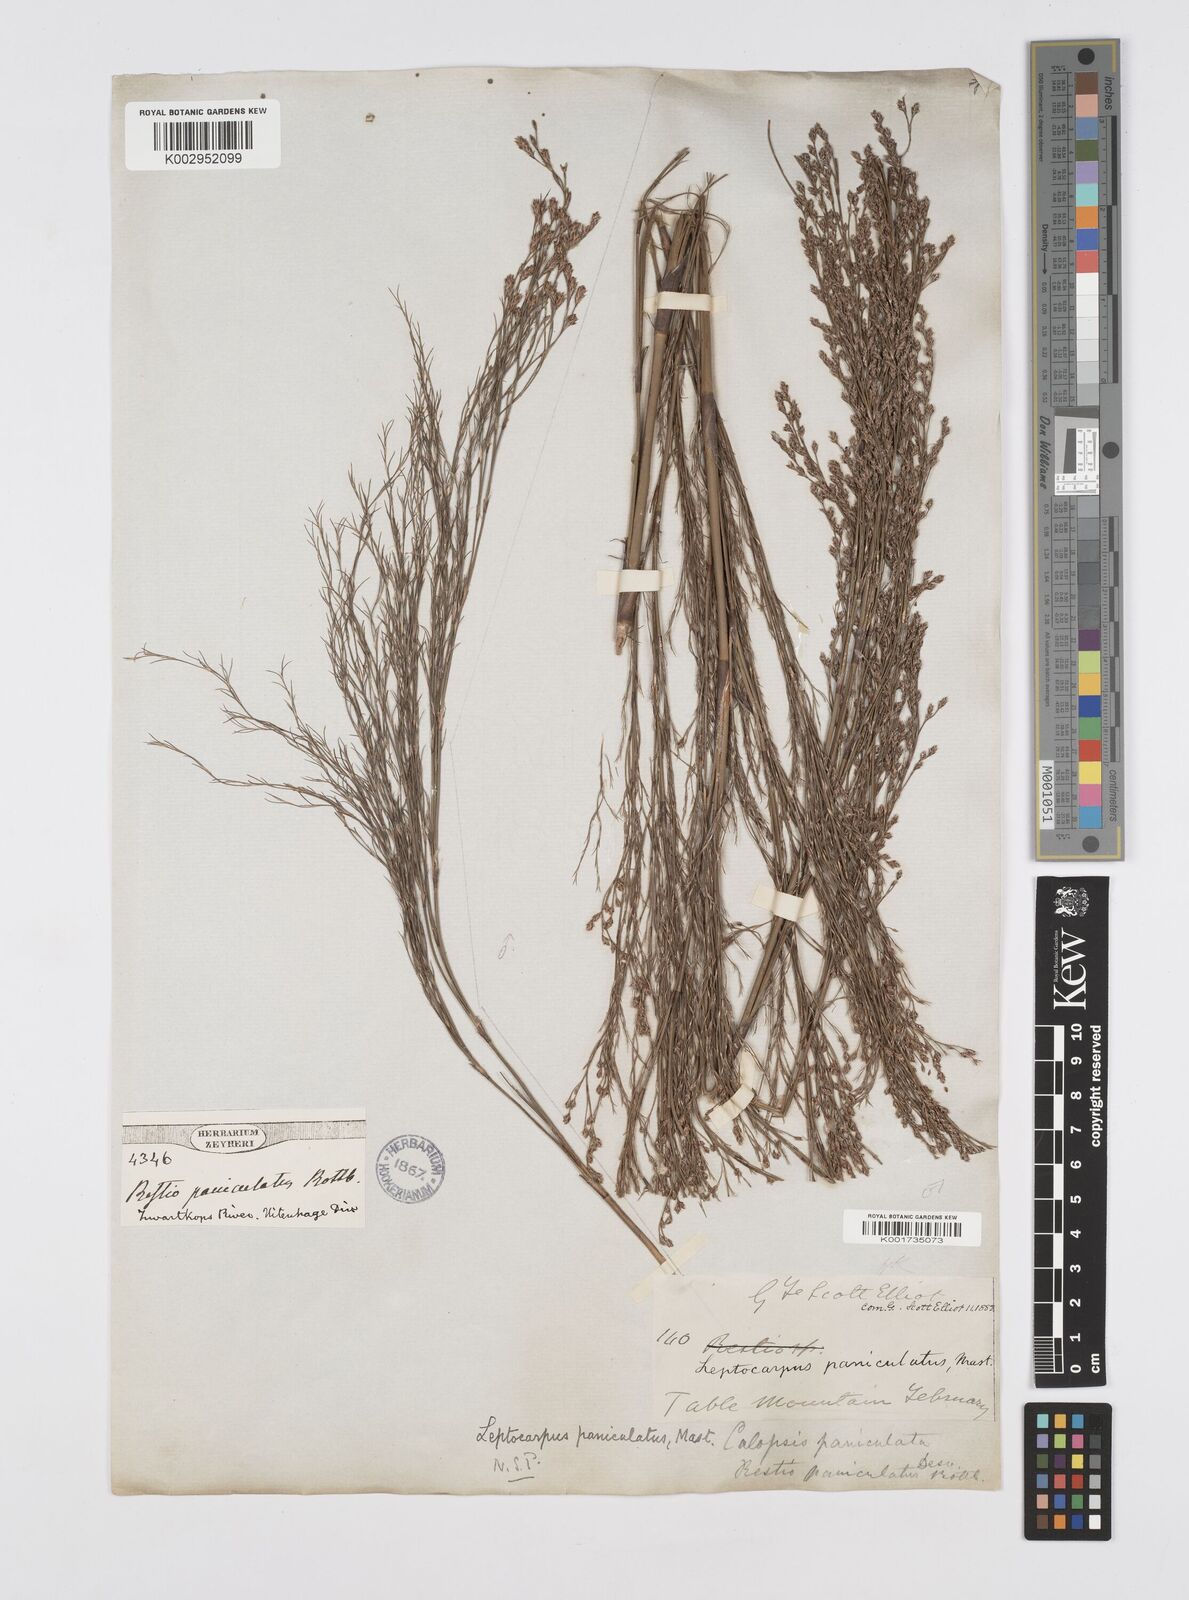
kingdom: Plantae
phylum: Tracheophyta
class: Liliopsida
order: Poales
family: Restionaceae
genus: Restio
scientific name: Restio paniculatus
